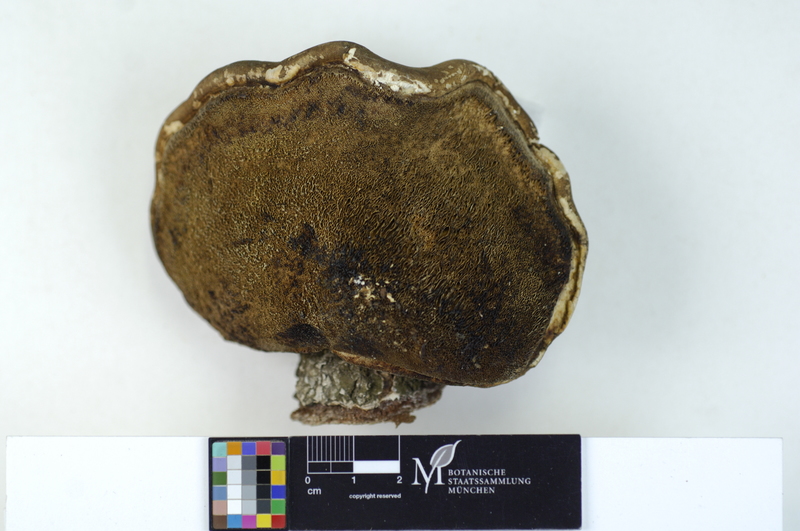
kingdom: Fungi
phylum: Basidiomycota
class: Agaricomycetes
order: Polyporales
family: Fomitopsidaceae
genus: Fomitopsis
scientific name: Fomitopsis betulina
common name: Birch polypore
